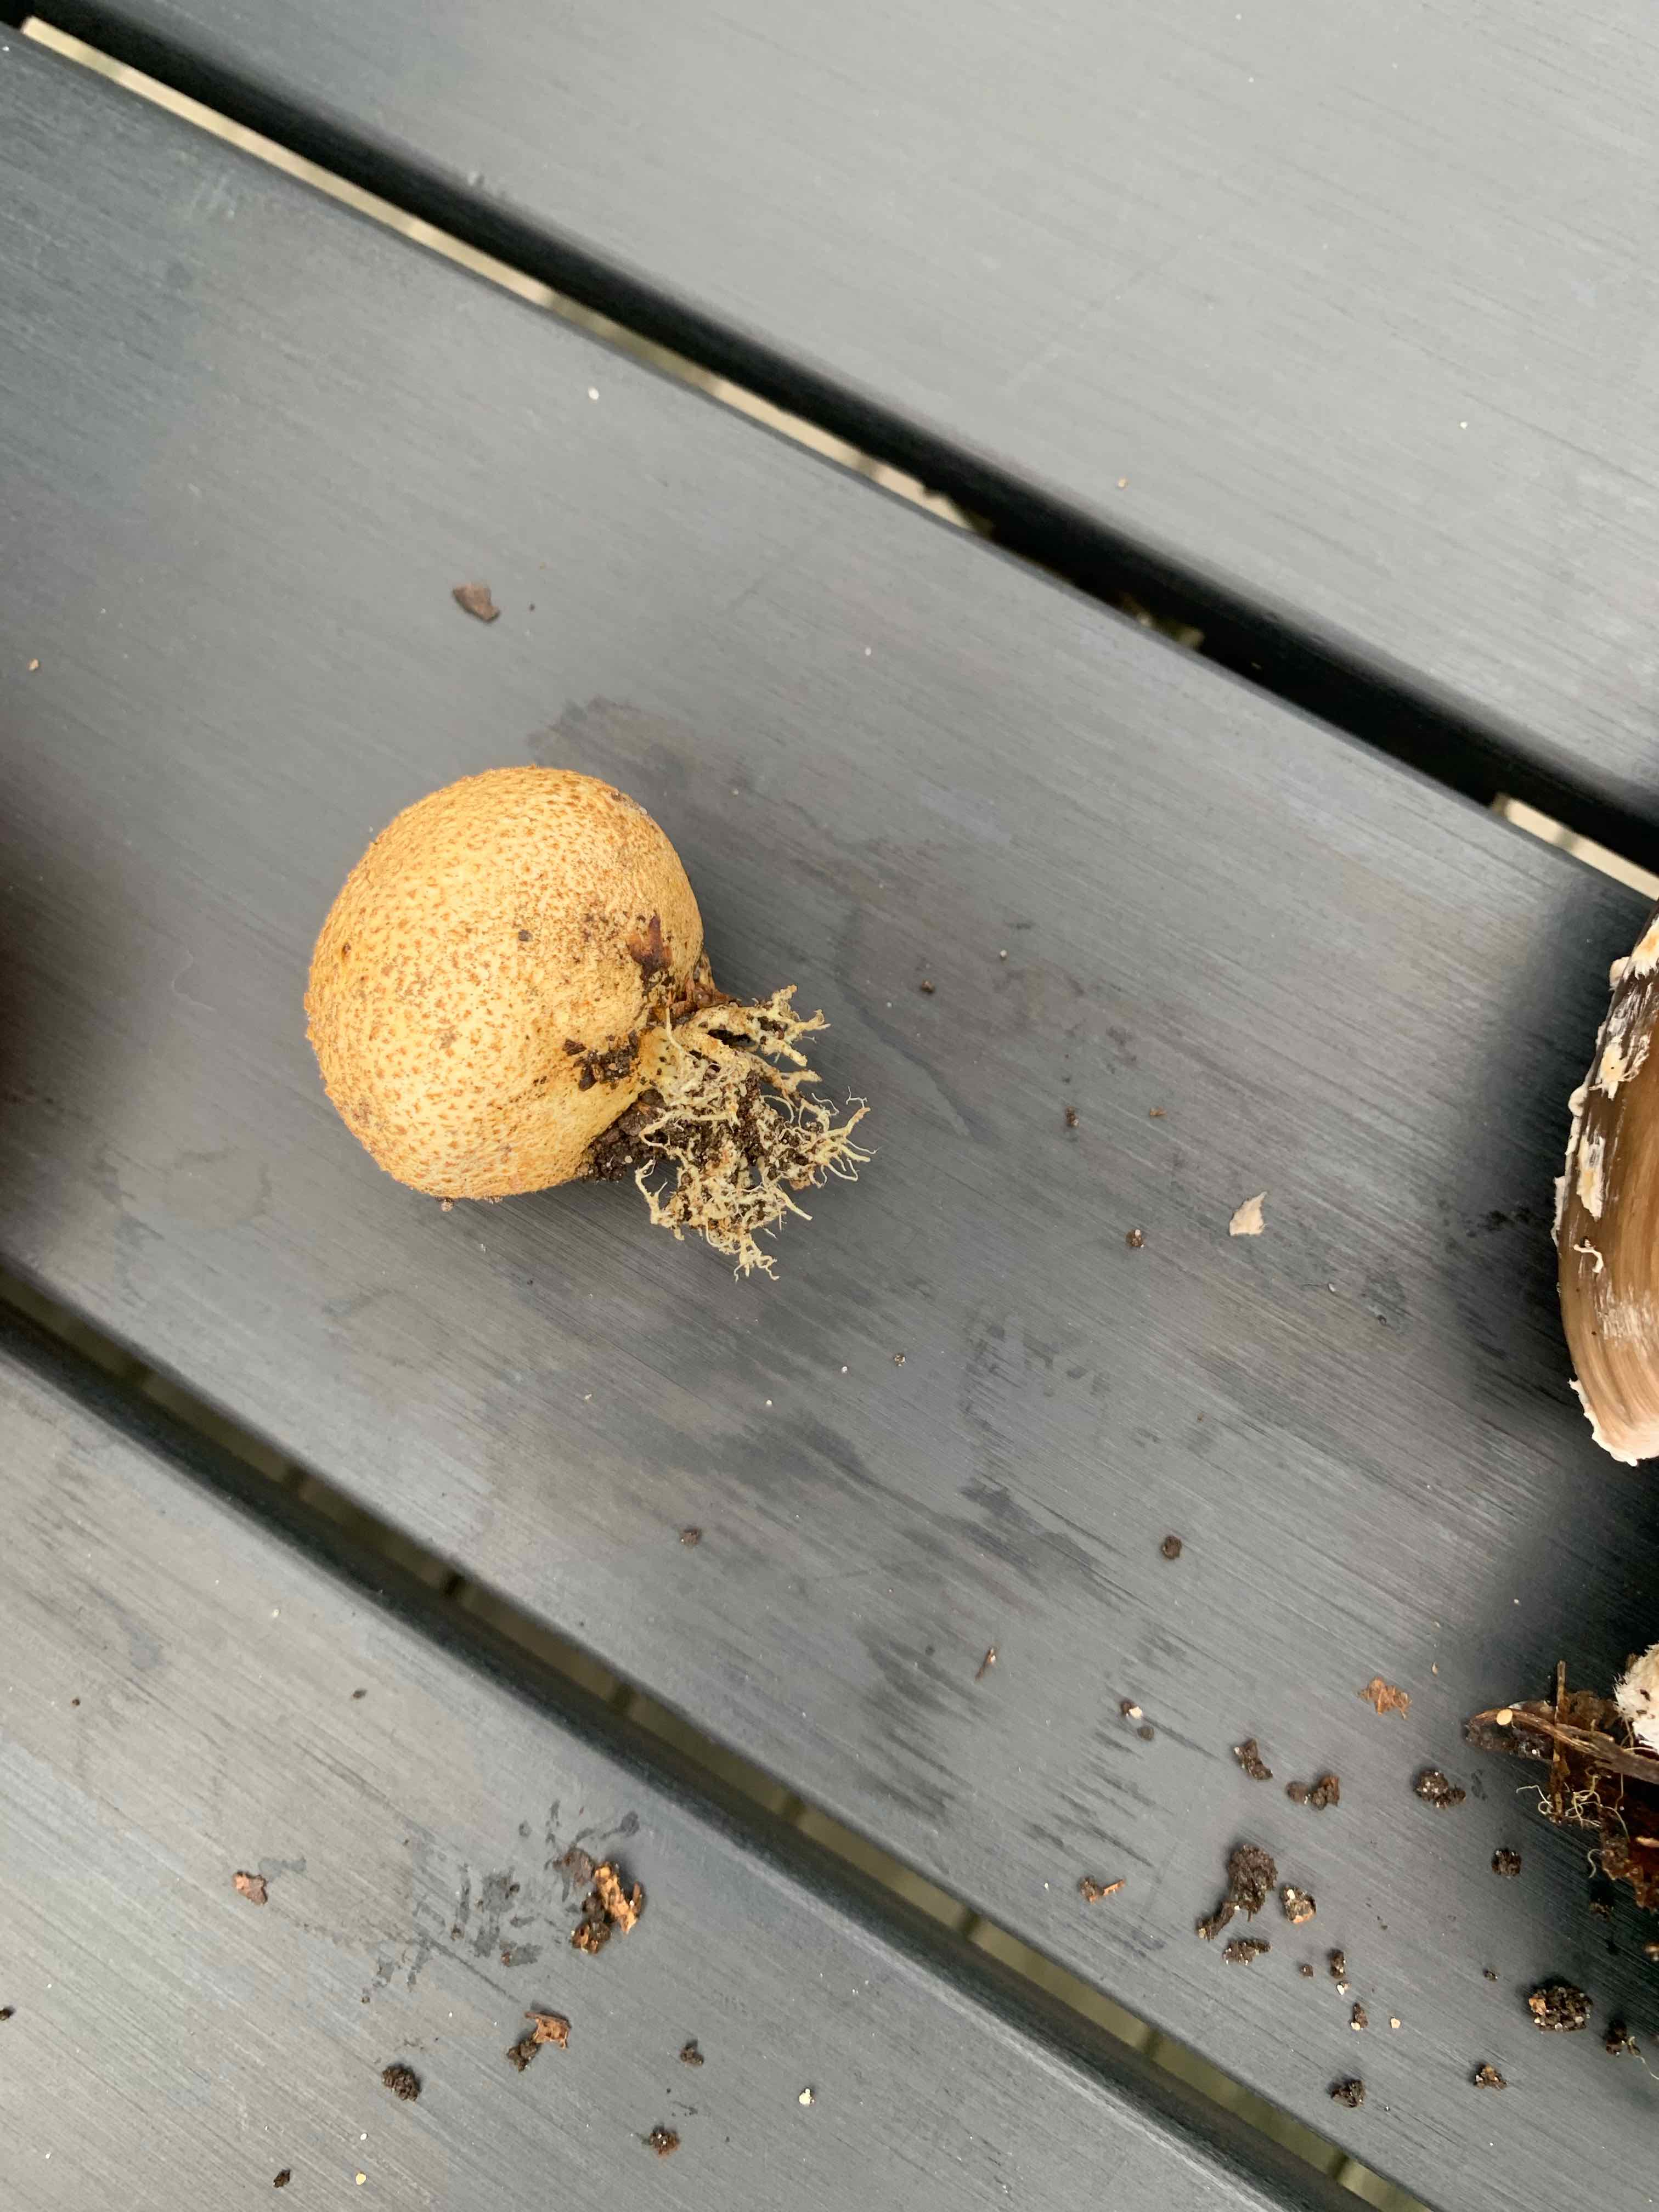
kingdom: Fungi
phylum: Basidiomycota
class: Agaricomycetes
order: Boletales
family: Sclerodermataceae
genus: Scleroderma
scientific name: Scleroderma citrinum
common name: almindelig bruskbold
